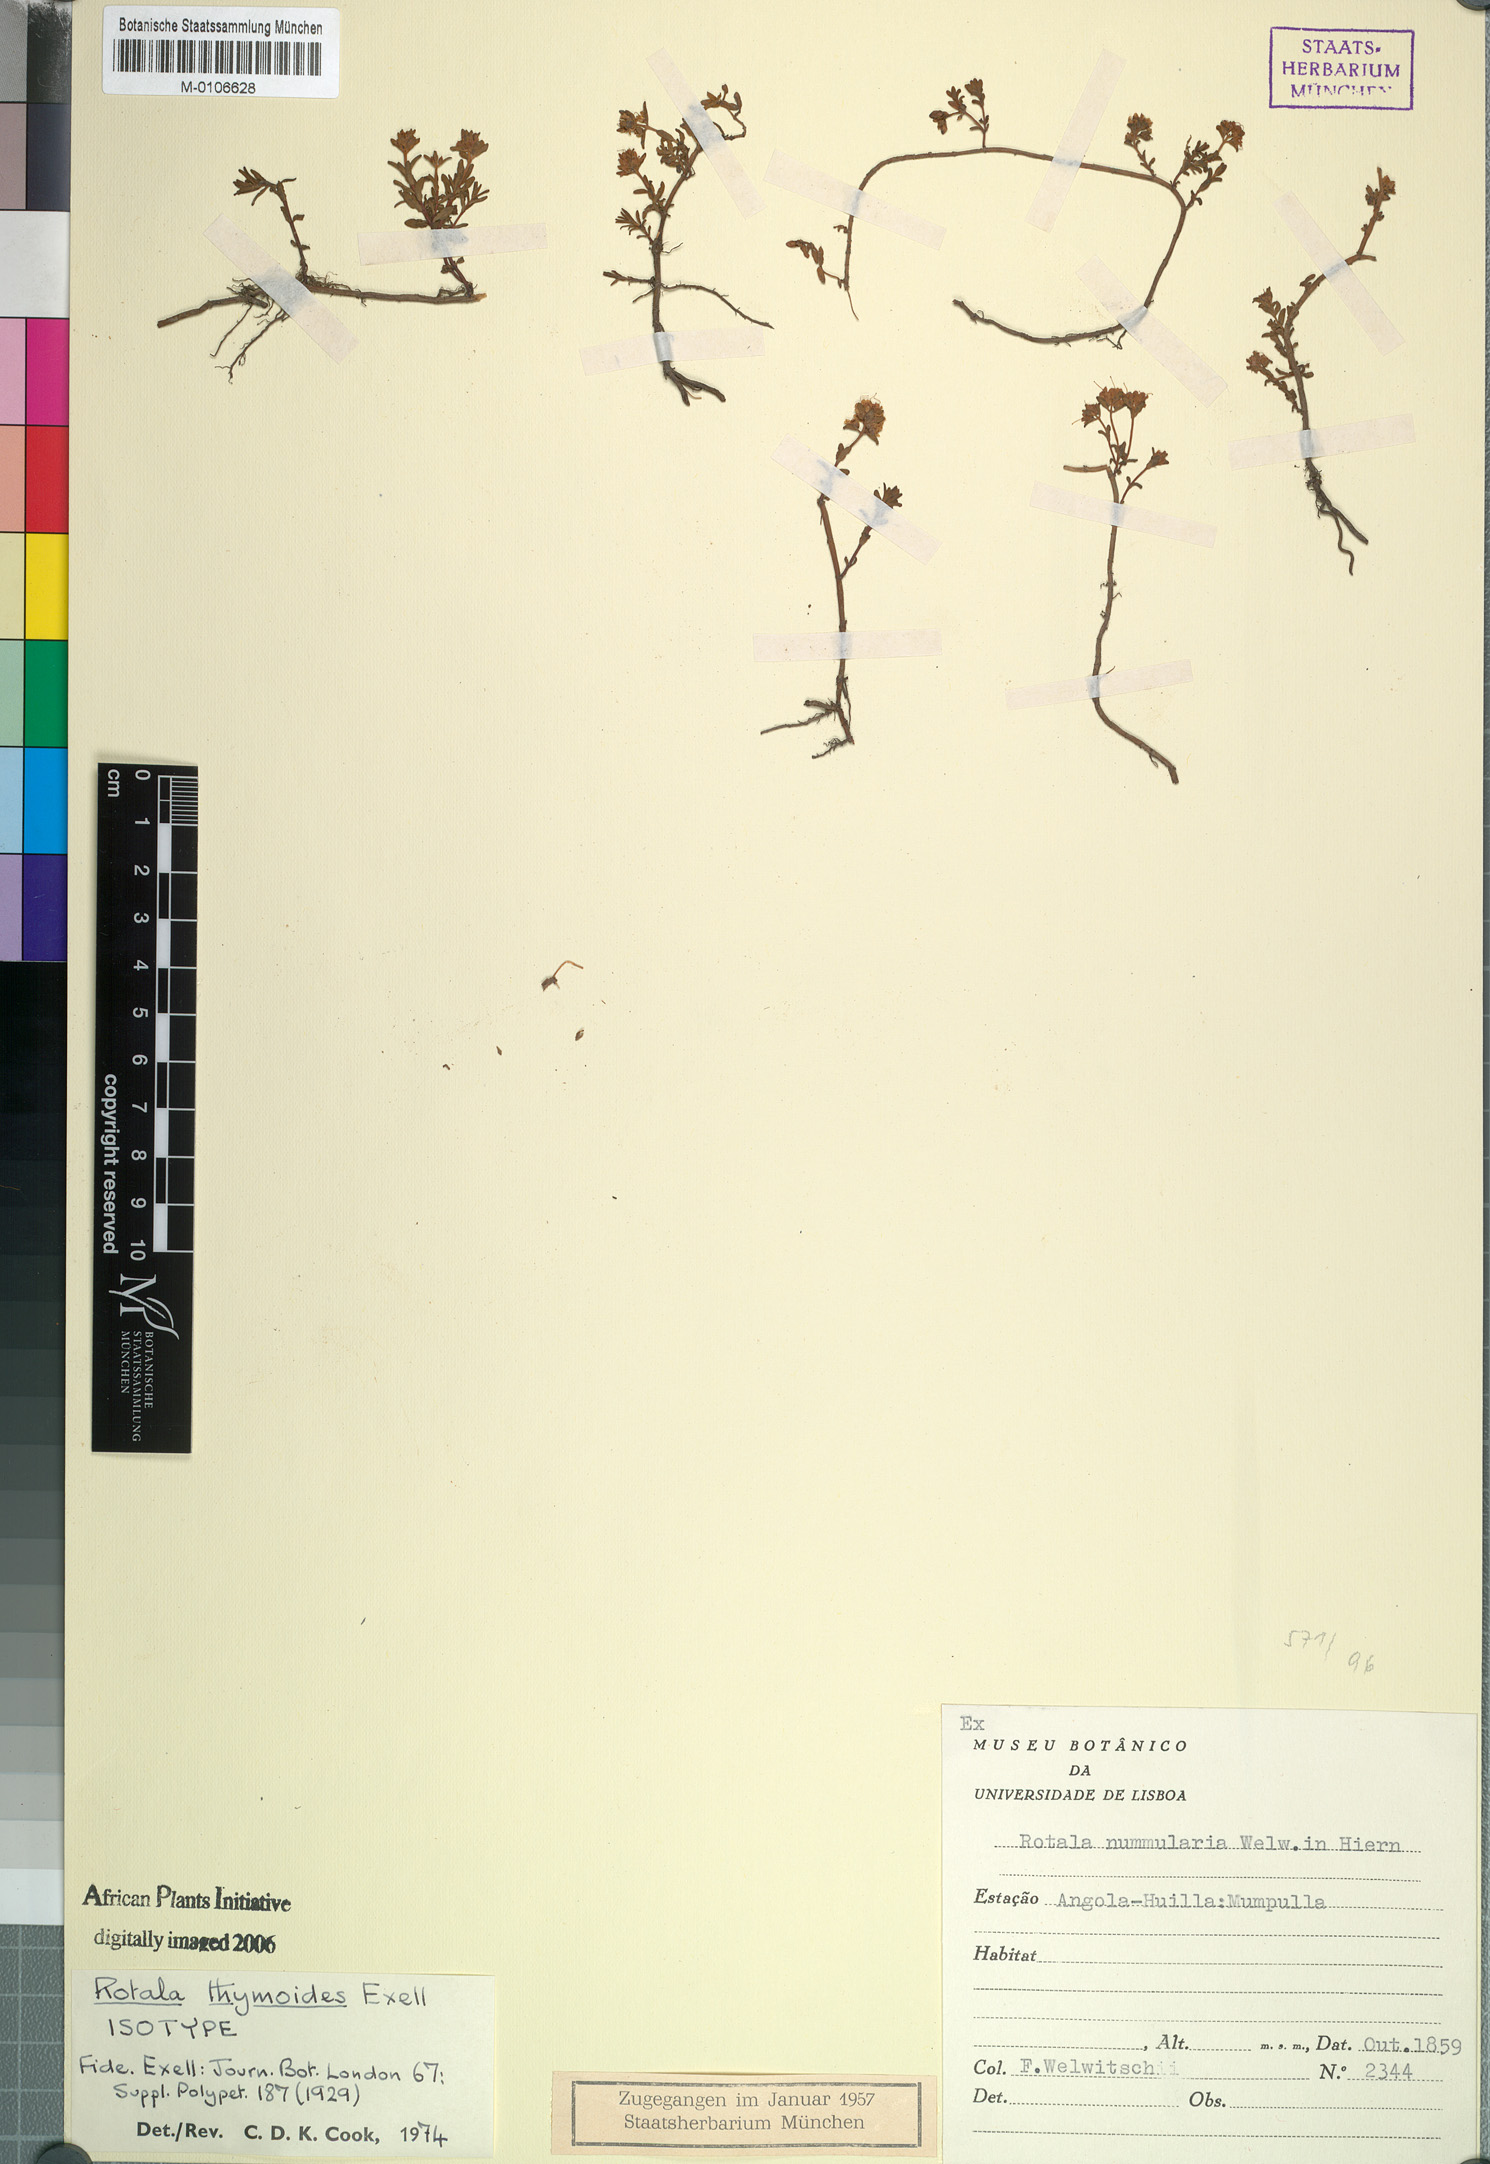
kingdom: Plantae
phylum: Tracheophyta
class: Magnoliopsida
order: Myrtales
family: Lythraceae
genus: Rotala
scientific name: Rotala thymoides
